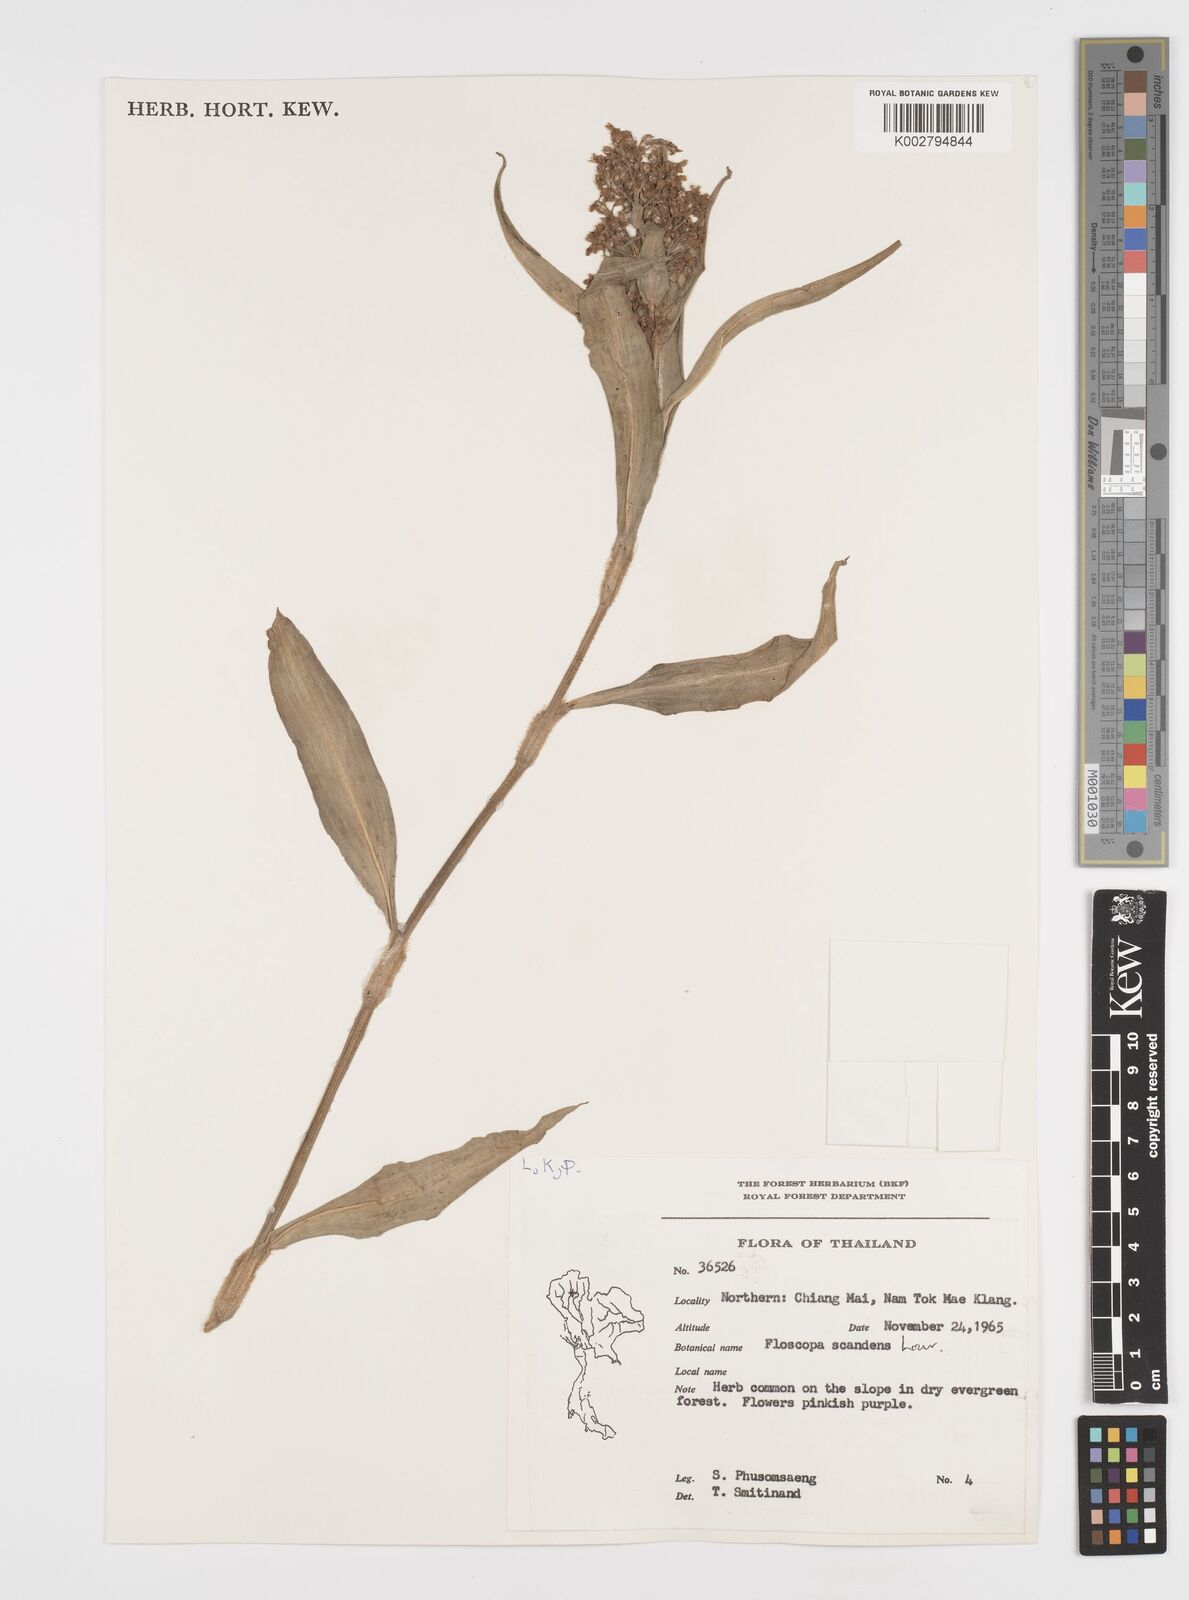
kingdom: Plantae
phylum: Tracheophyta
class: Liliopsida
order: Commelinales
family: Commelinaceae
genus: Floscopa
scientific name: Floscopa scandens
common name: Climbing flower cup
